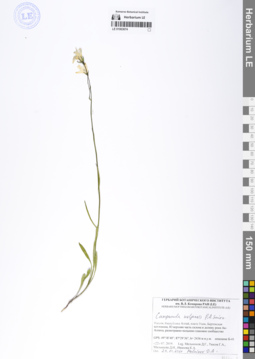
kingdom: Plantae
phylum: Tracheophyta
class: Magnoliopsida
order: Asterales
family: Campanulaceae
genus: Campanula
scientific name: Campanula stevenii
